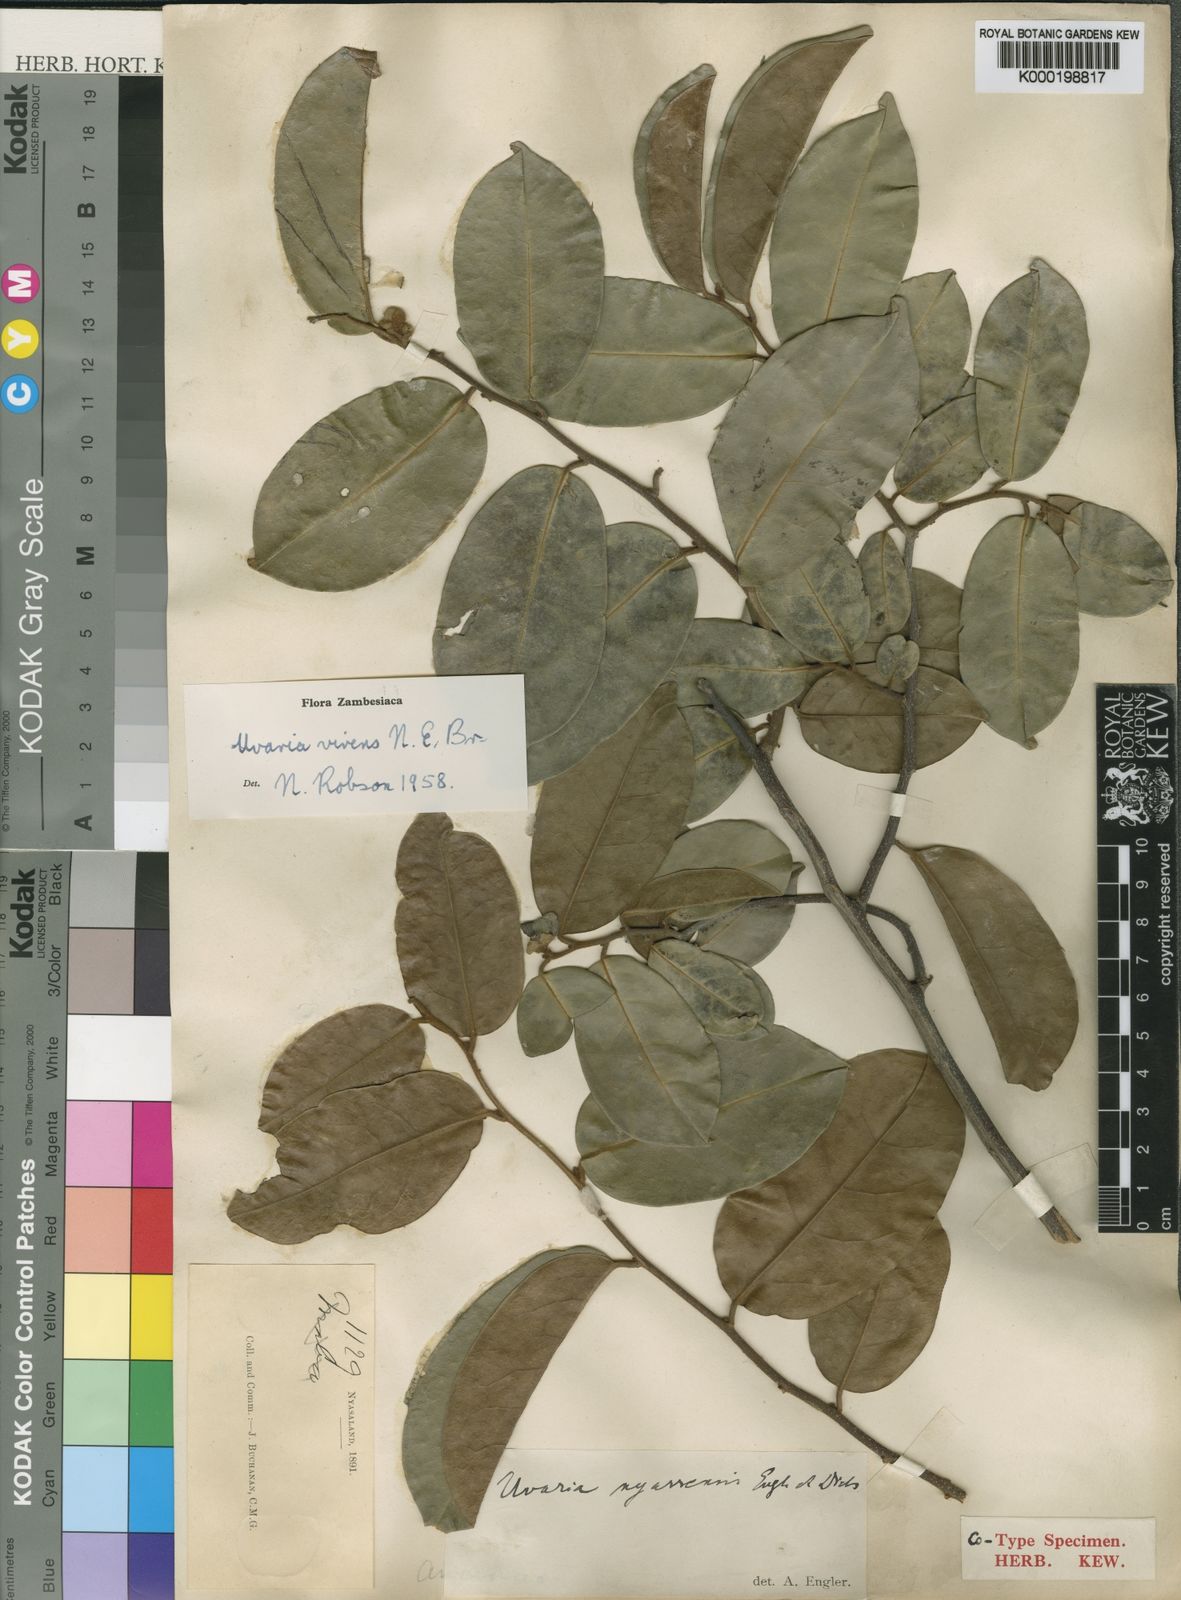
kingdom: Plantae
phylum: Tracheophyta
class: Magnoliopsida
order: Magnoliales
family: Annonaceae
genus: Uvaria
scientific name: Uvaria lucida
